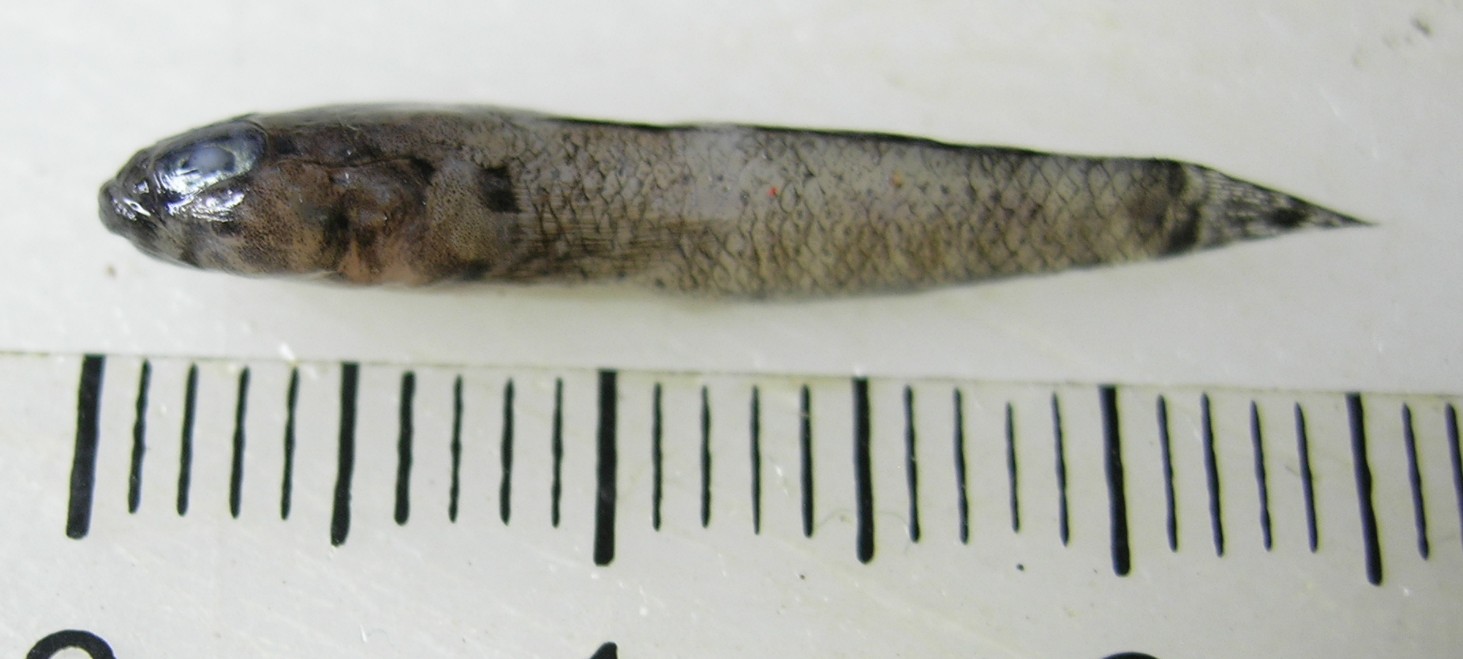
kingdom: Animalia
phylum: Chordata
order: Perciformes
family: Gobiidae
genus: Bathygobius
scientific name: Bathygobius laddi
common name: Brownboy goby
